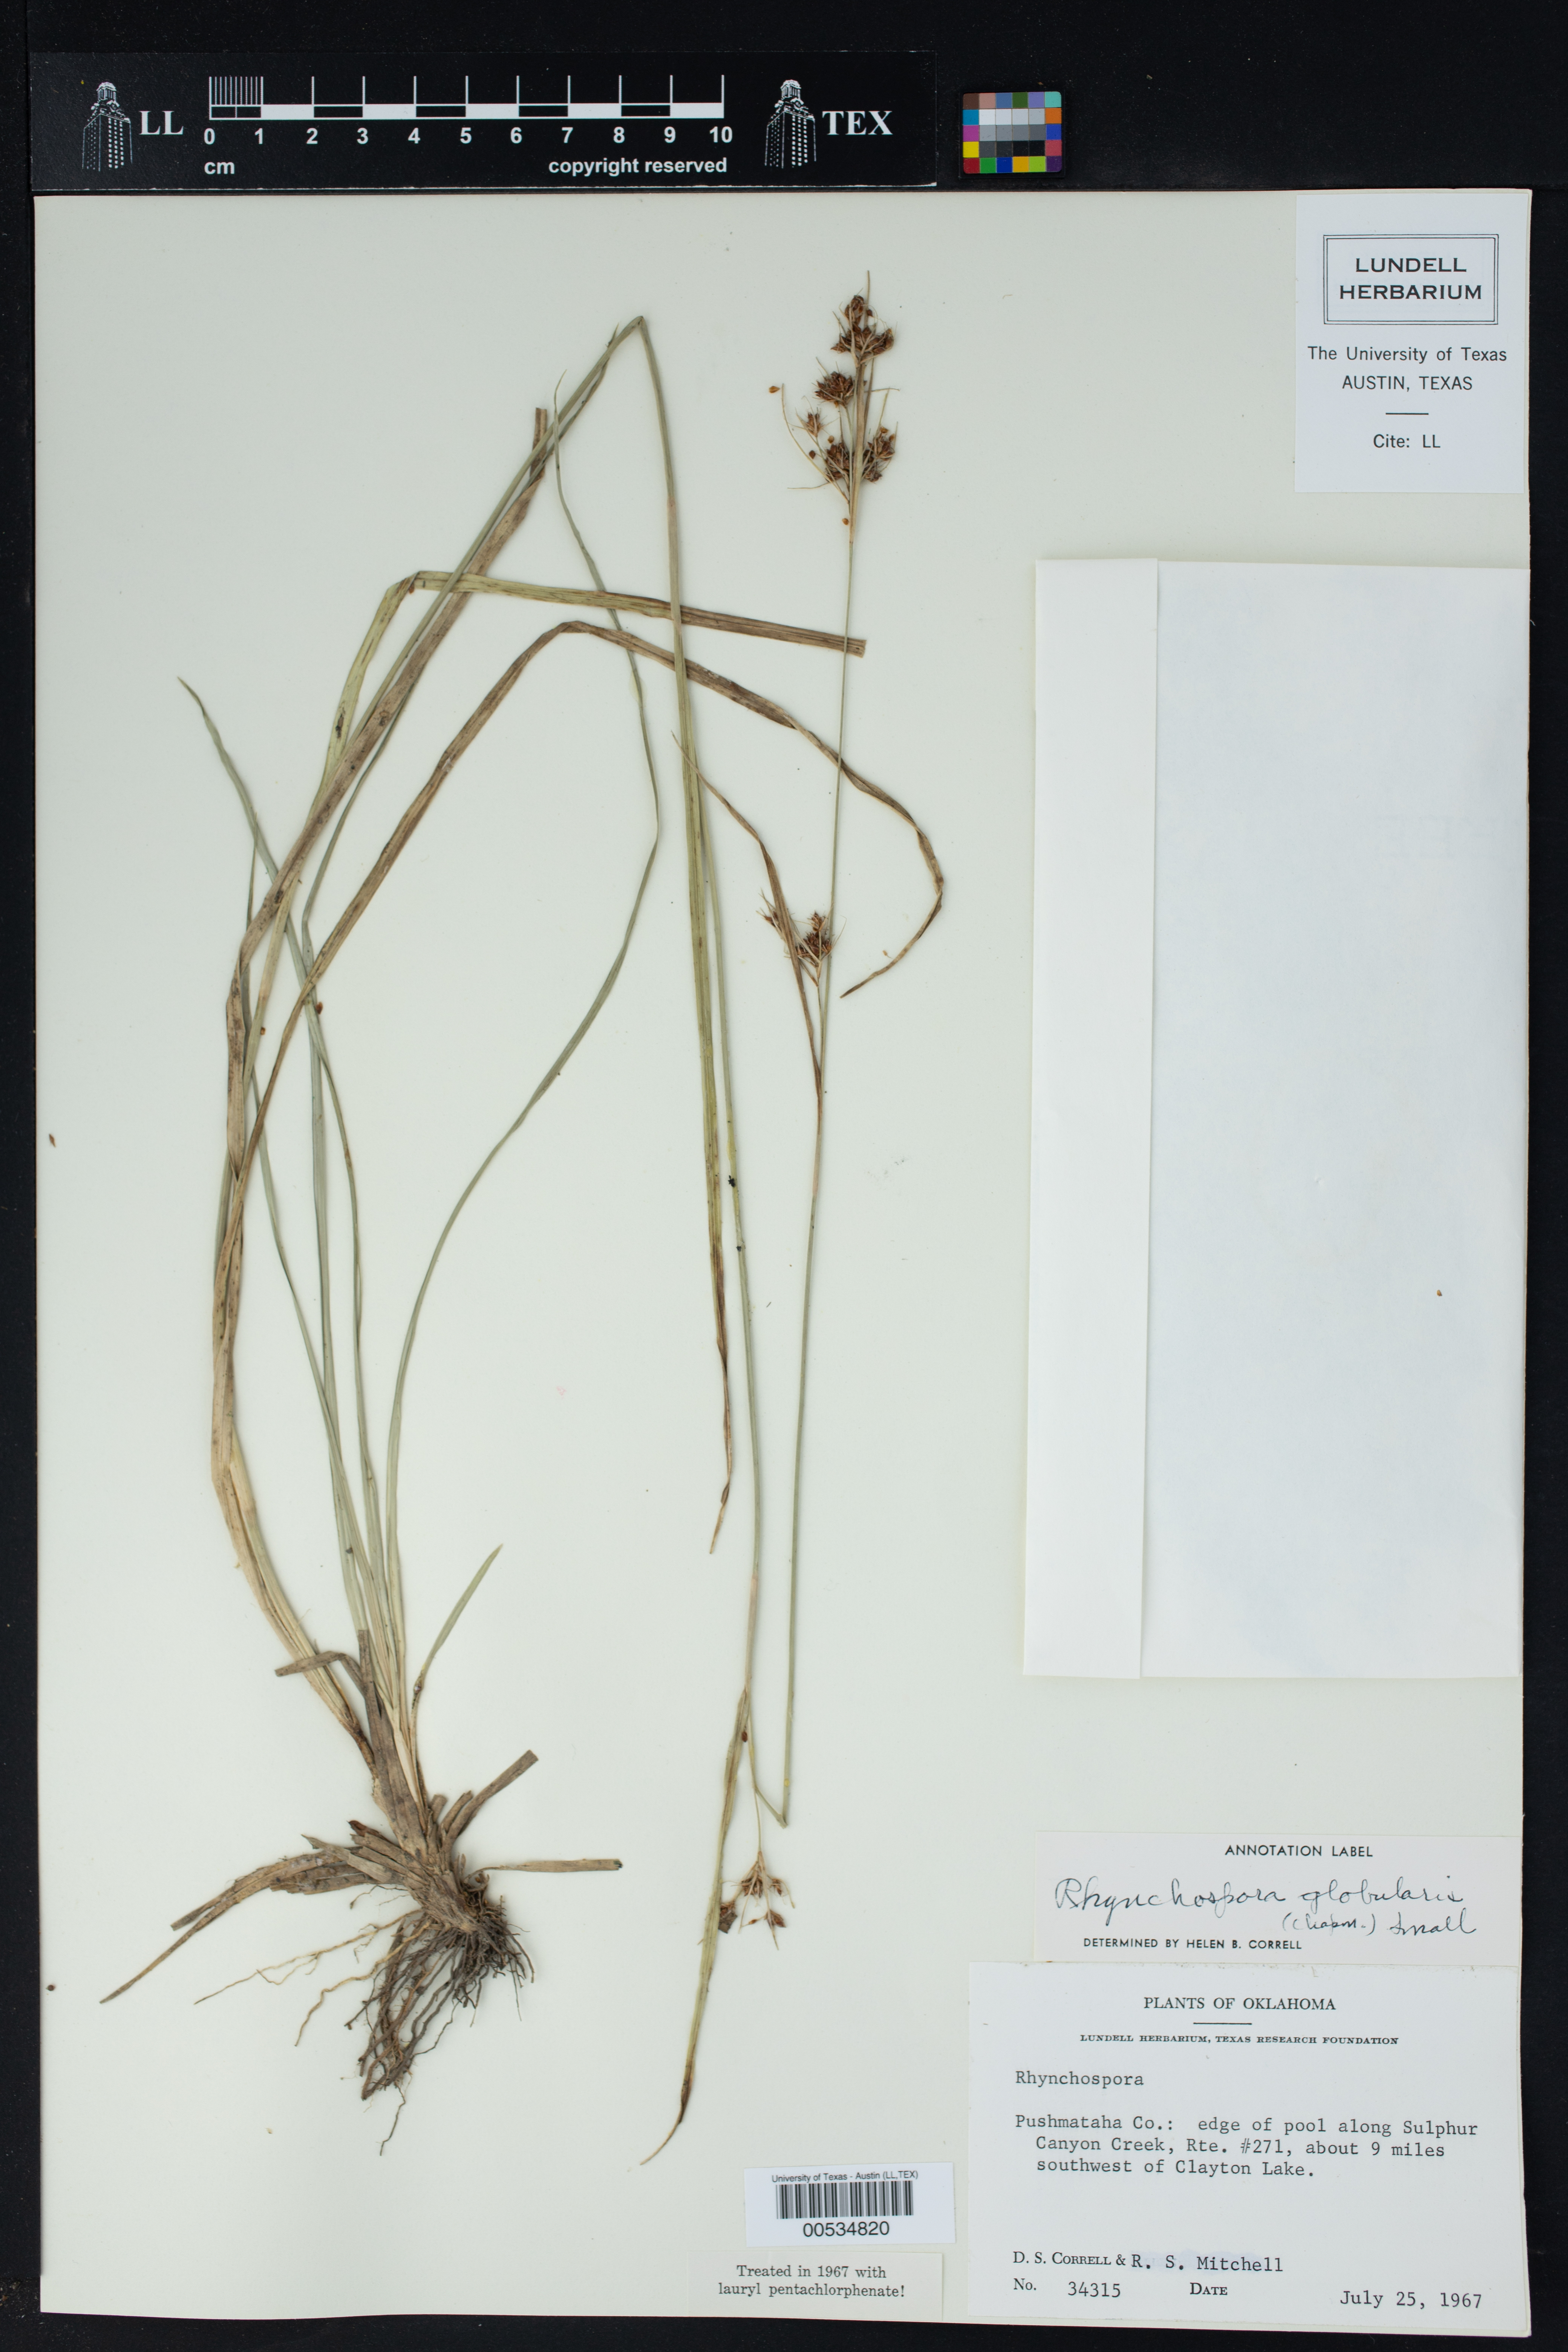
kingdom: Plantae
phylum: Tracheophyta
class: Liliopsida
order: Poales
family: Cyperaceae
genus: Rhynchospora
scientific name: Rhynchospora globularis
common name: Globe beaksedge
